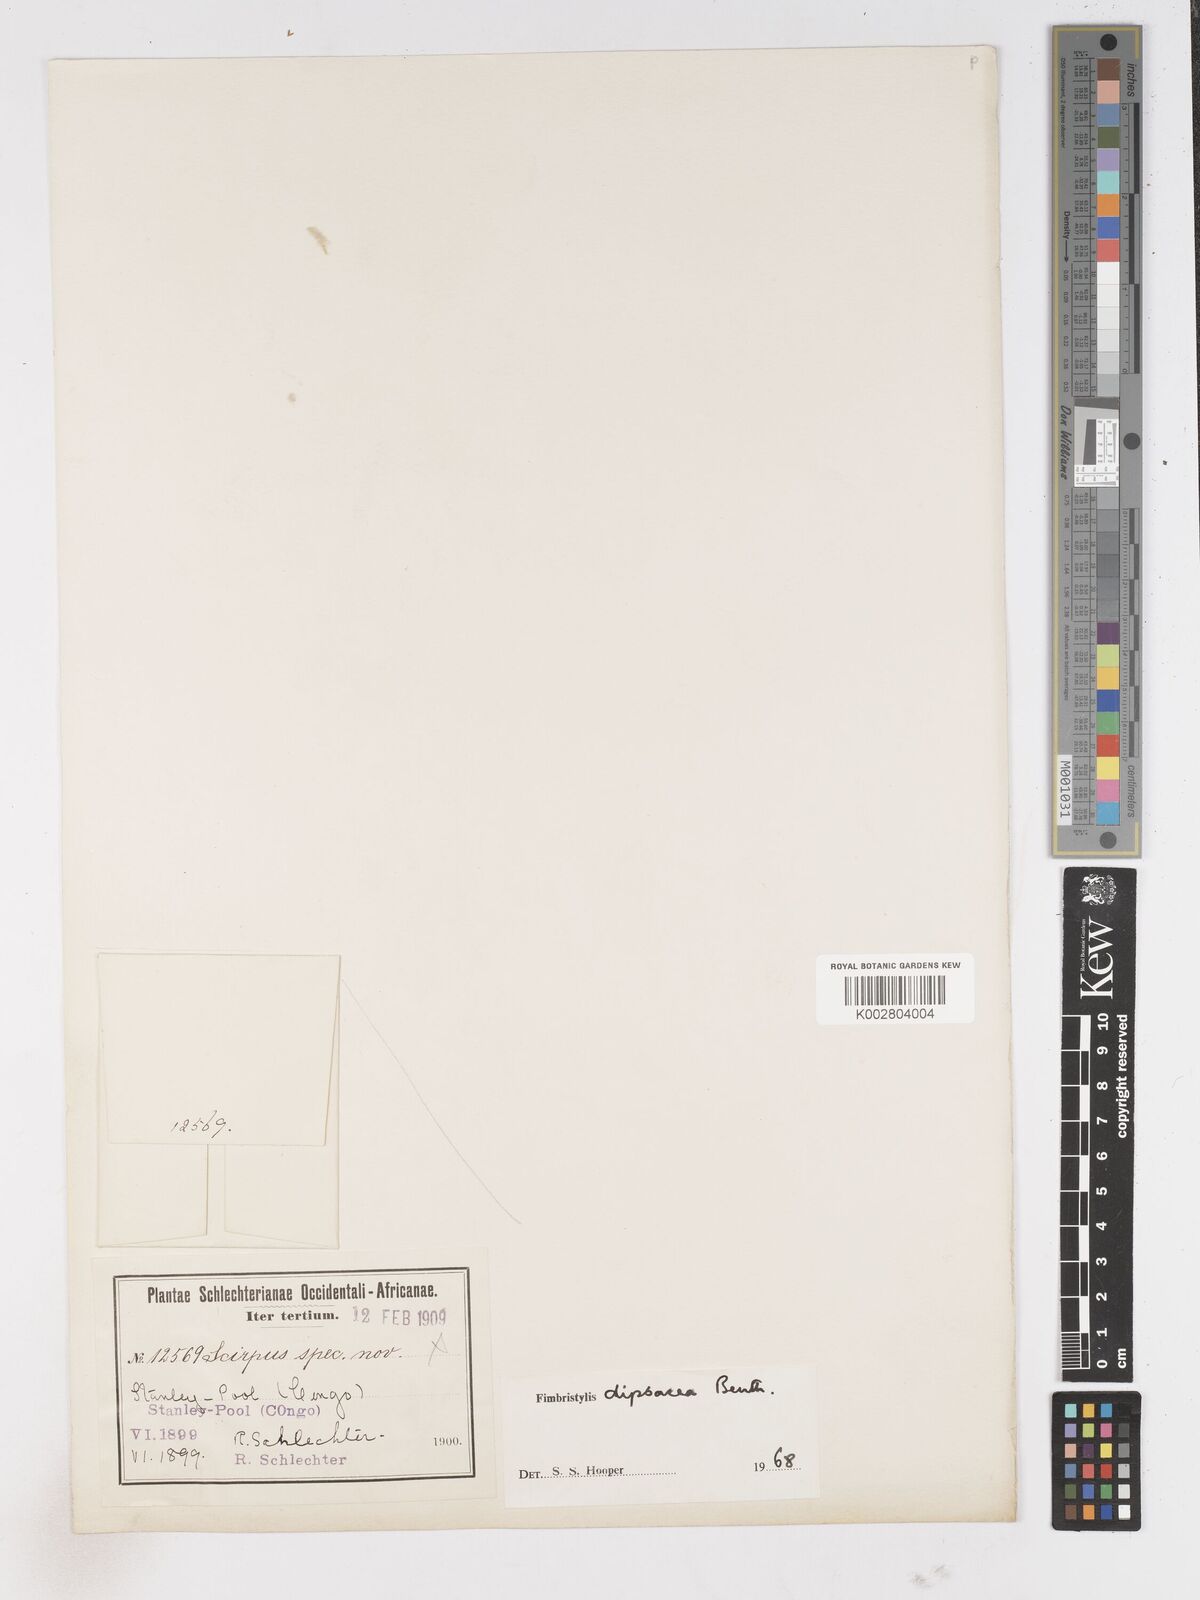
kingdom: Plantae
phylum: Tracheophyta
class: Liliopsida
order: Poales
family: Cyperaceae
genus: Fimbristylis
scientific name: Fimbristylis dipsacea
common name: Harper's fimbristylis
